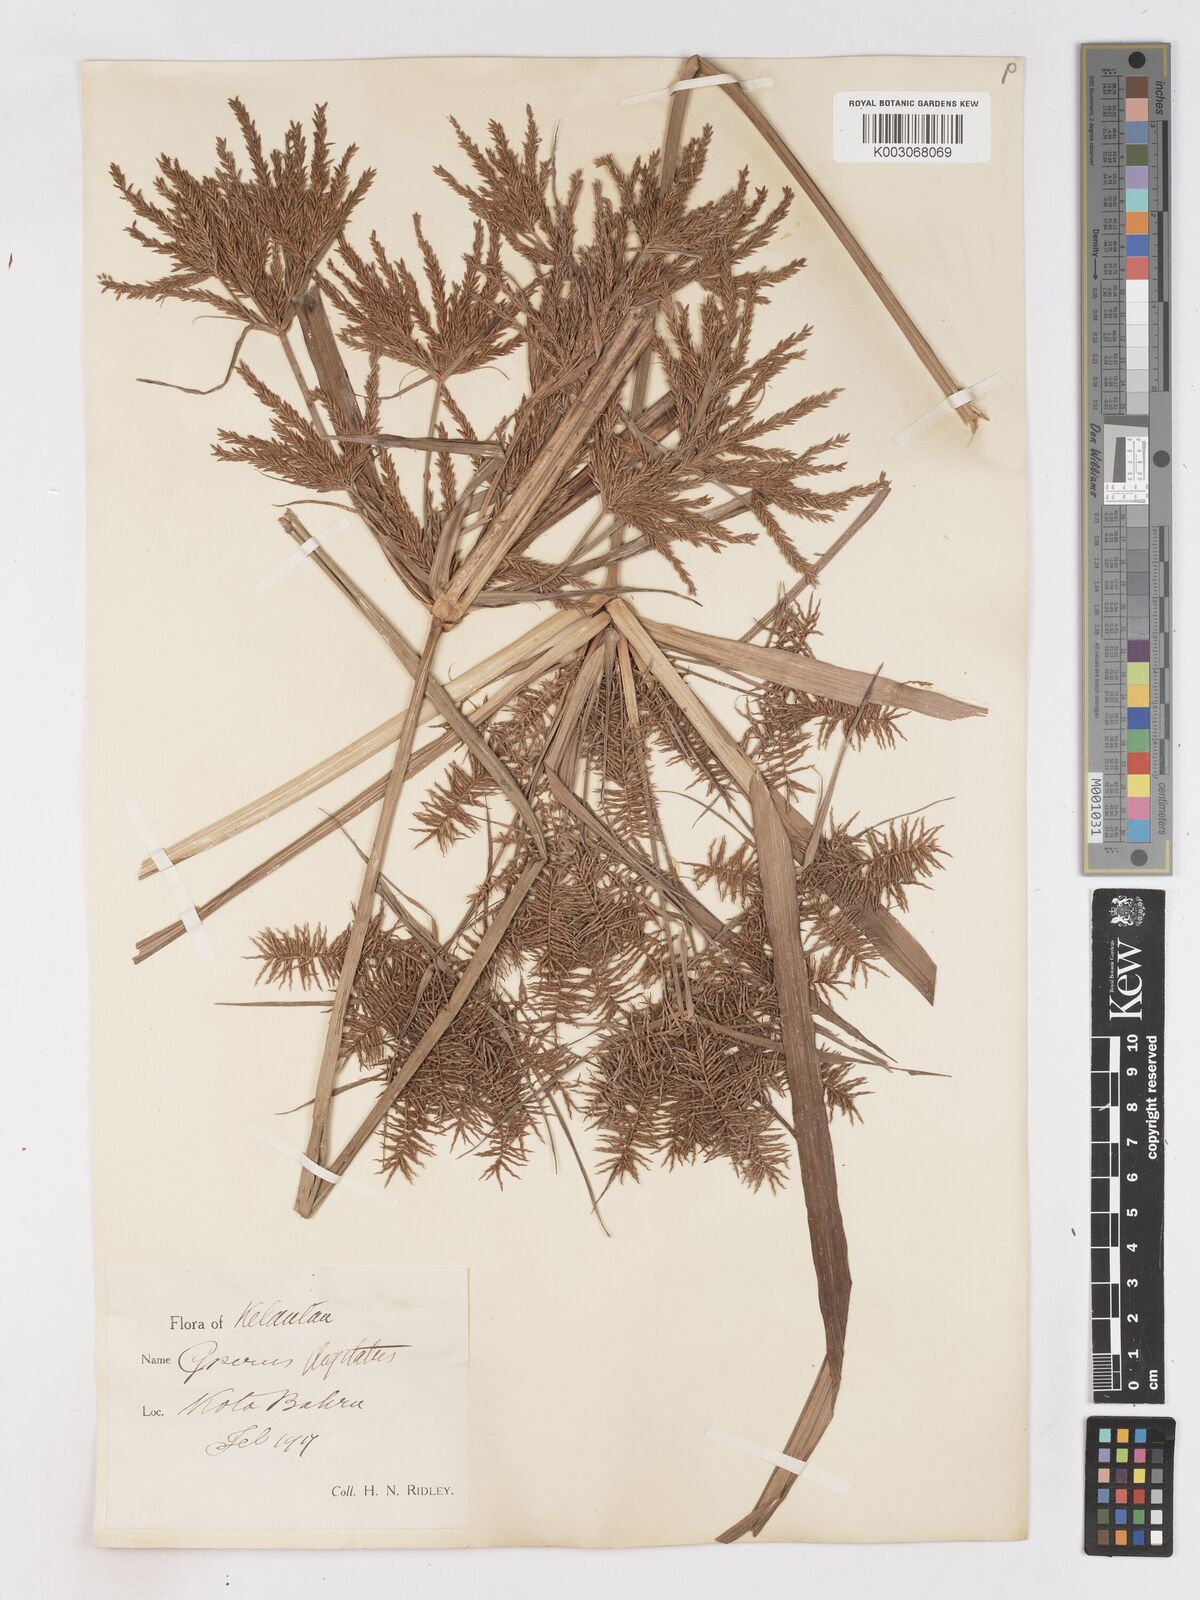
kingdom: Plantae
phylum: Tracheophyta
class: Liliopsida
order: Poales
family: Cyperaceae
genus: Cyperus
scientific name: Cyperus digitatus
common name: Finger flatsedge
